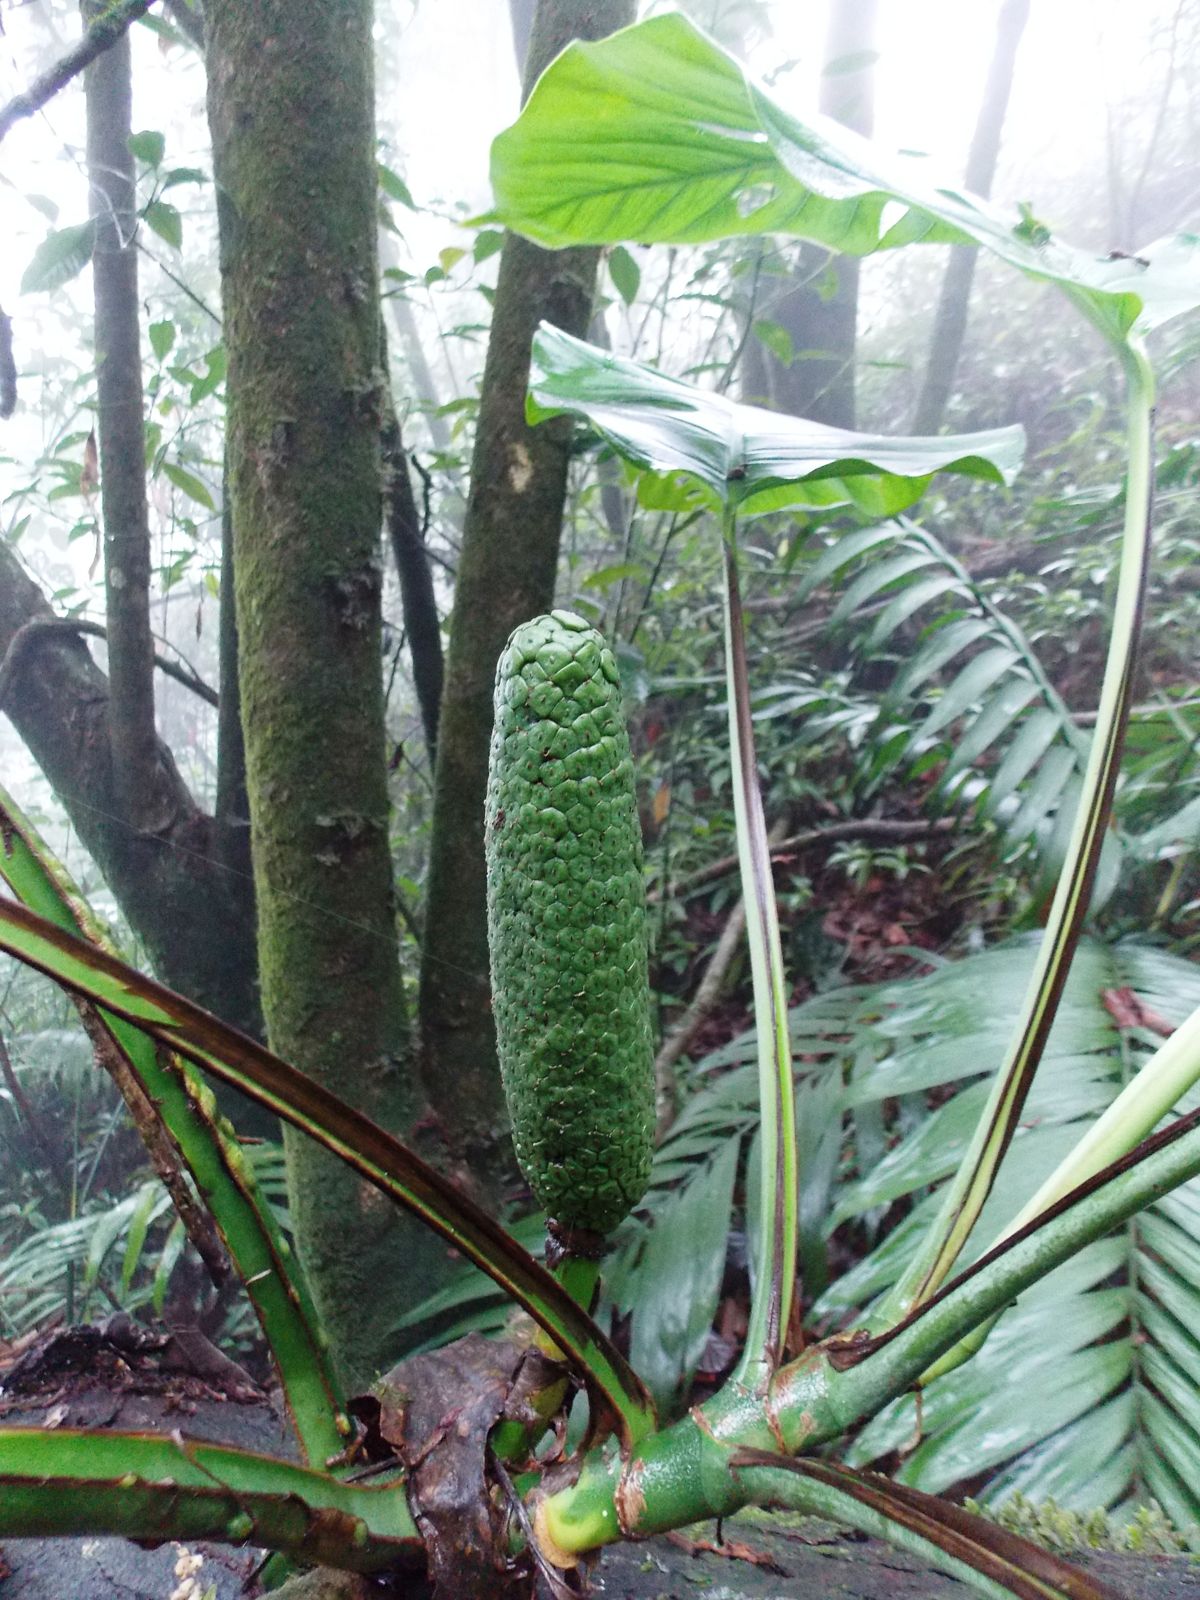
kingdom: Plantae
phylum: Tracheophyta
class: Liliopsida
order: Alismatales
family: Araceae
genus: Monstera
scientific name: Monstera siltepecana
